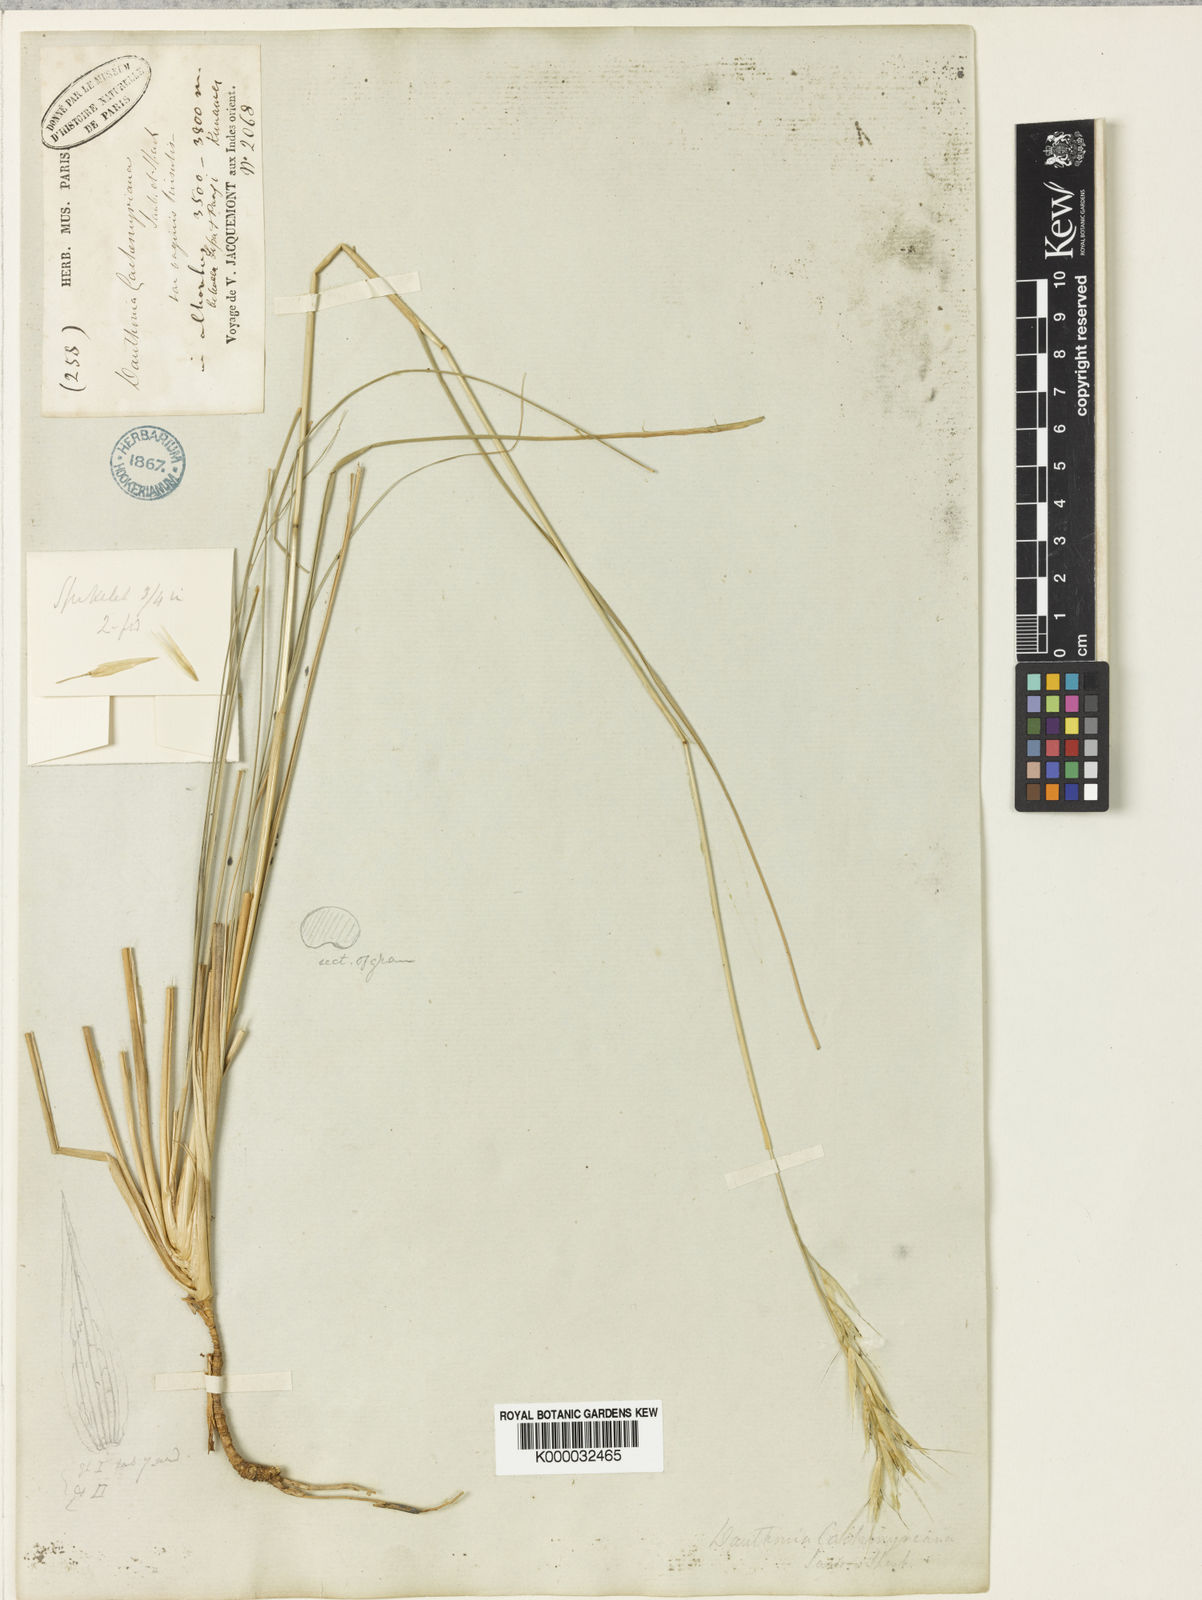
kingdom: Plantae
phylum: Tracheophyta
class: Liliopsida
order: Poales
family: Poaceae
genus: Rytidosperma
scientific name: Rytidosperma
